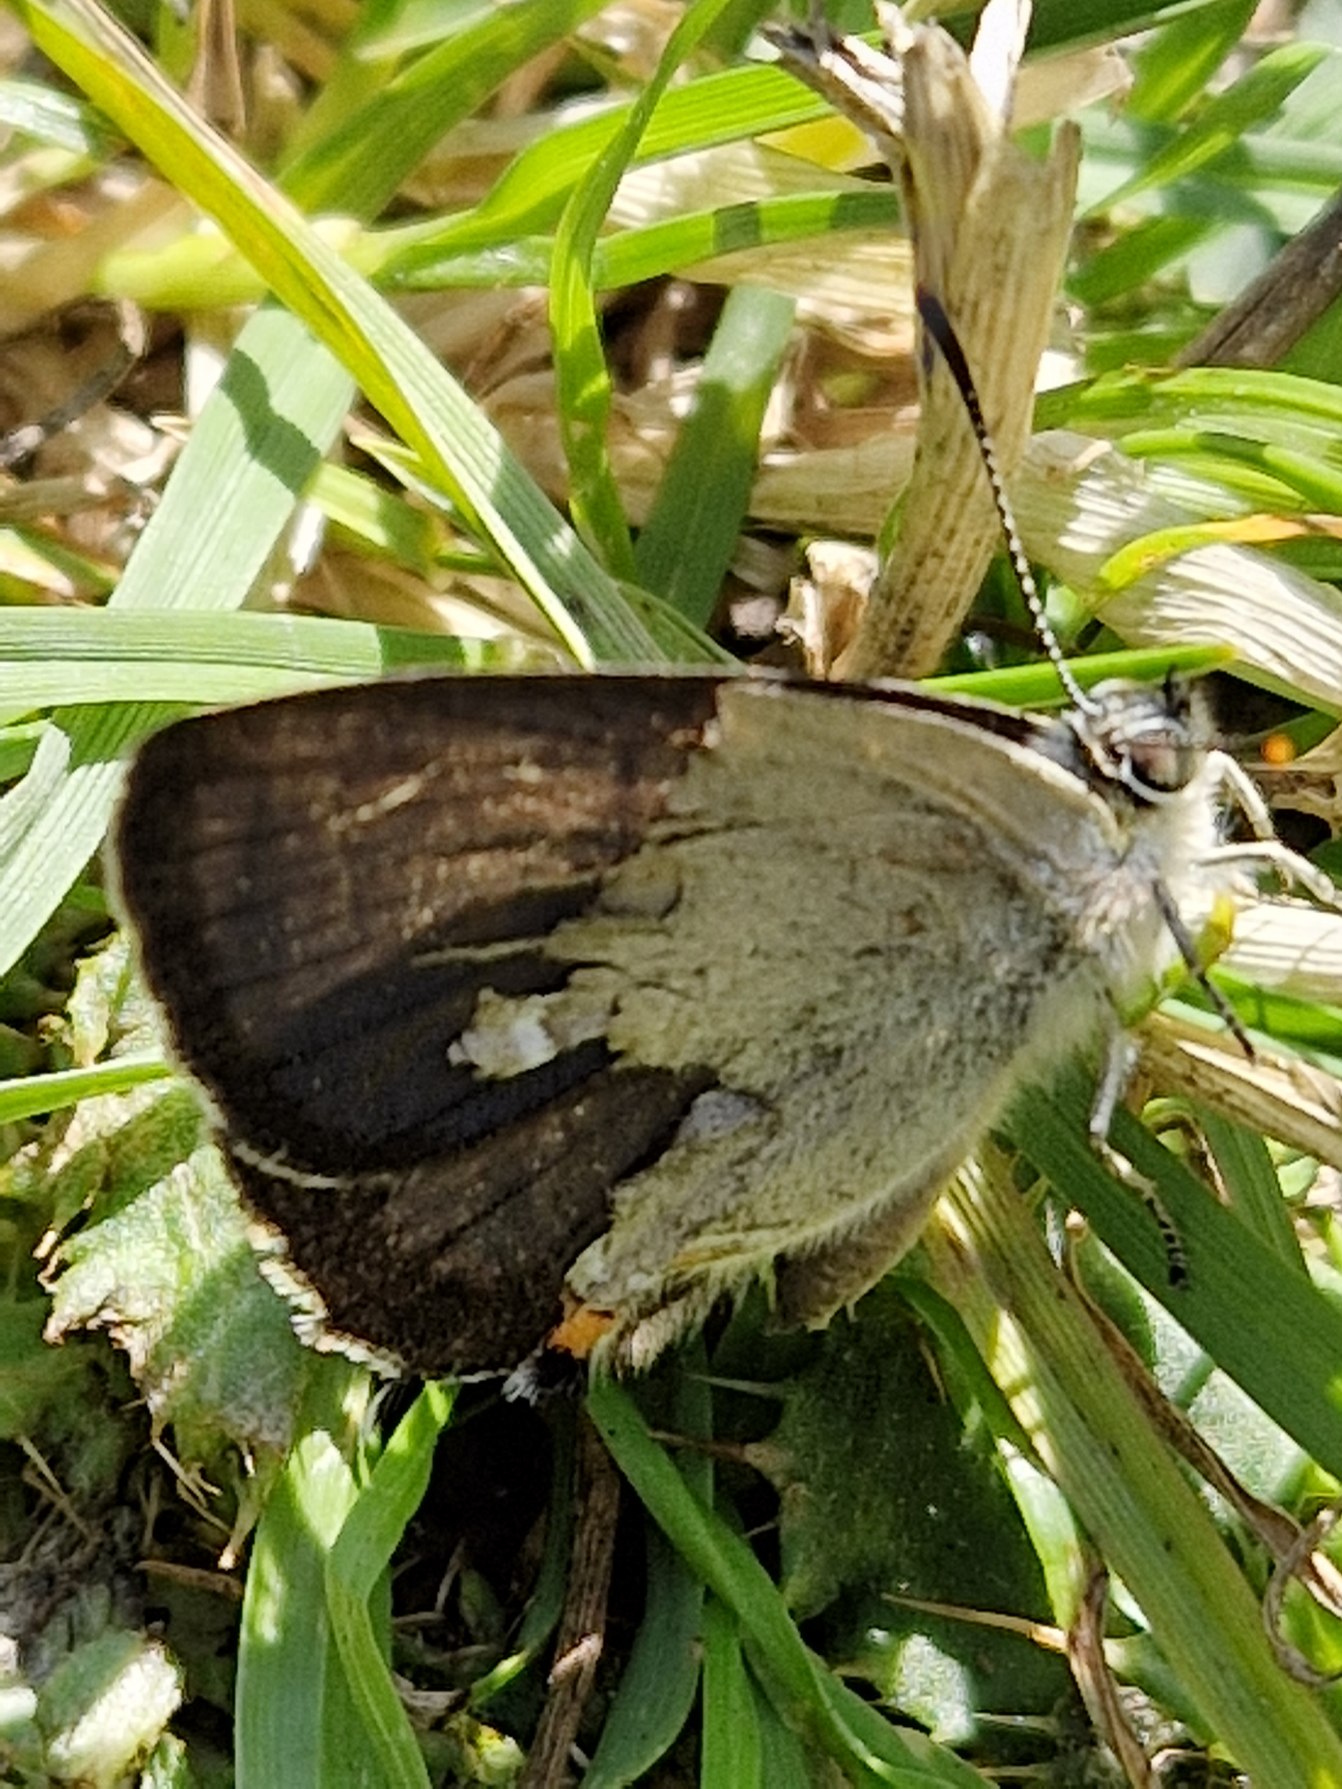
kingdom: Animalia
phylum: Arthropoda
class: Insecta
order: Lepidoptera
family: Lycaenidae
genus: Quercusia
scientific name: Quercusia quercus
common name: Blåhale
